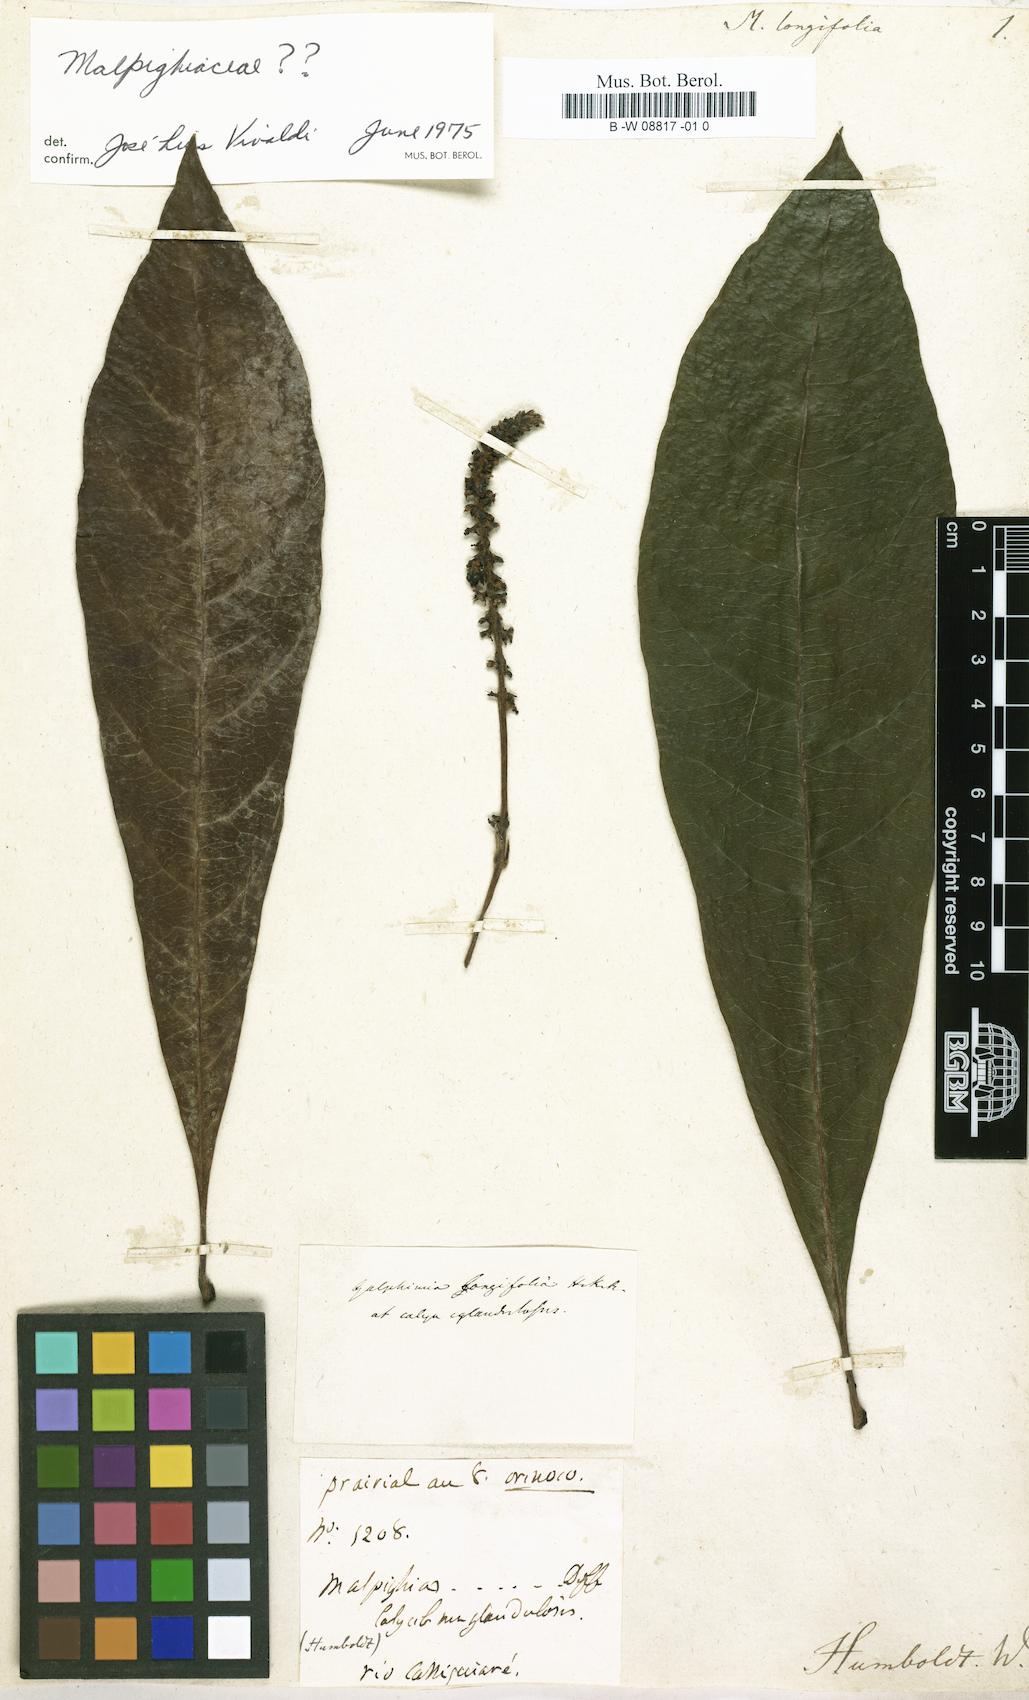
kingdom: Plantae
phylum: Tracheophyta
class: Magnoliopsida
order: Malpighiales
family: Malpighiaceae
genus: Malpighia
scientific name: Malpighia longifolia
